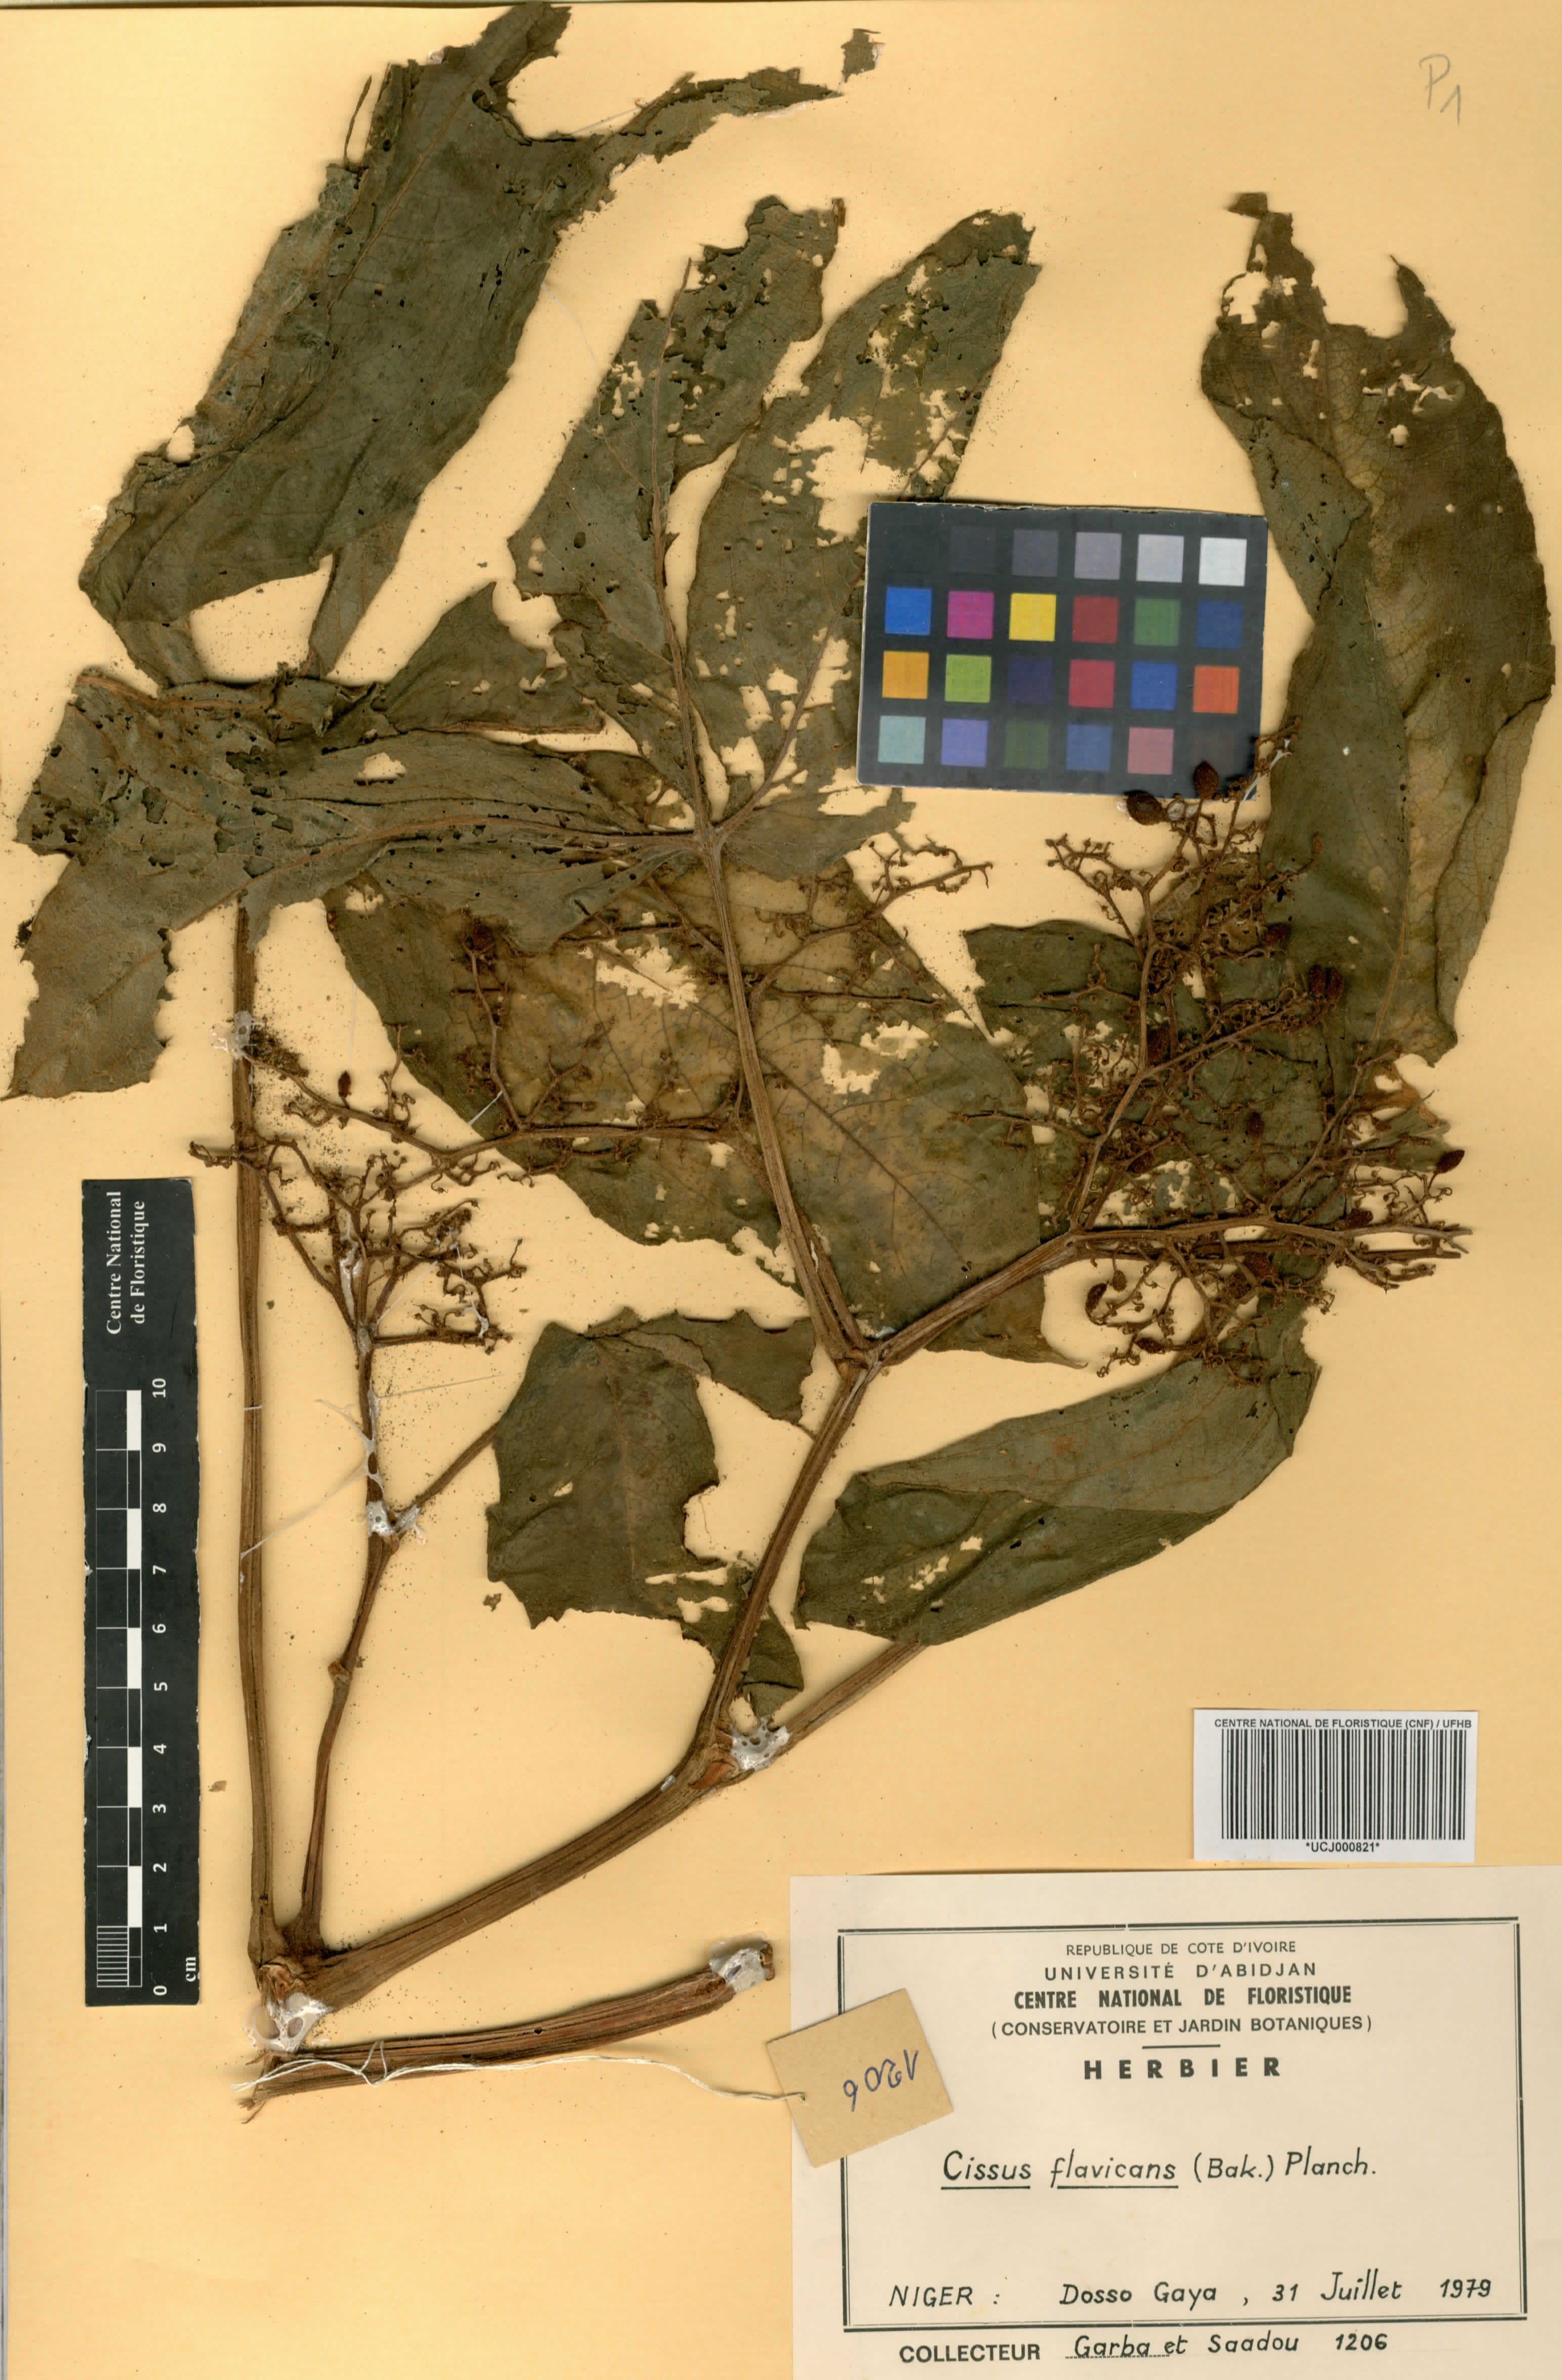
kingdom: Plantae
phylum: Tracheophyta
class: Magnoliopsida
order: Vitales
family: Vitaceae
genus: Cissus
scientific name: Cissus doeringii
